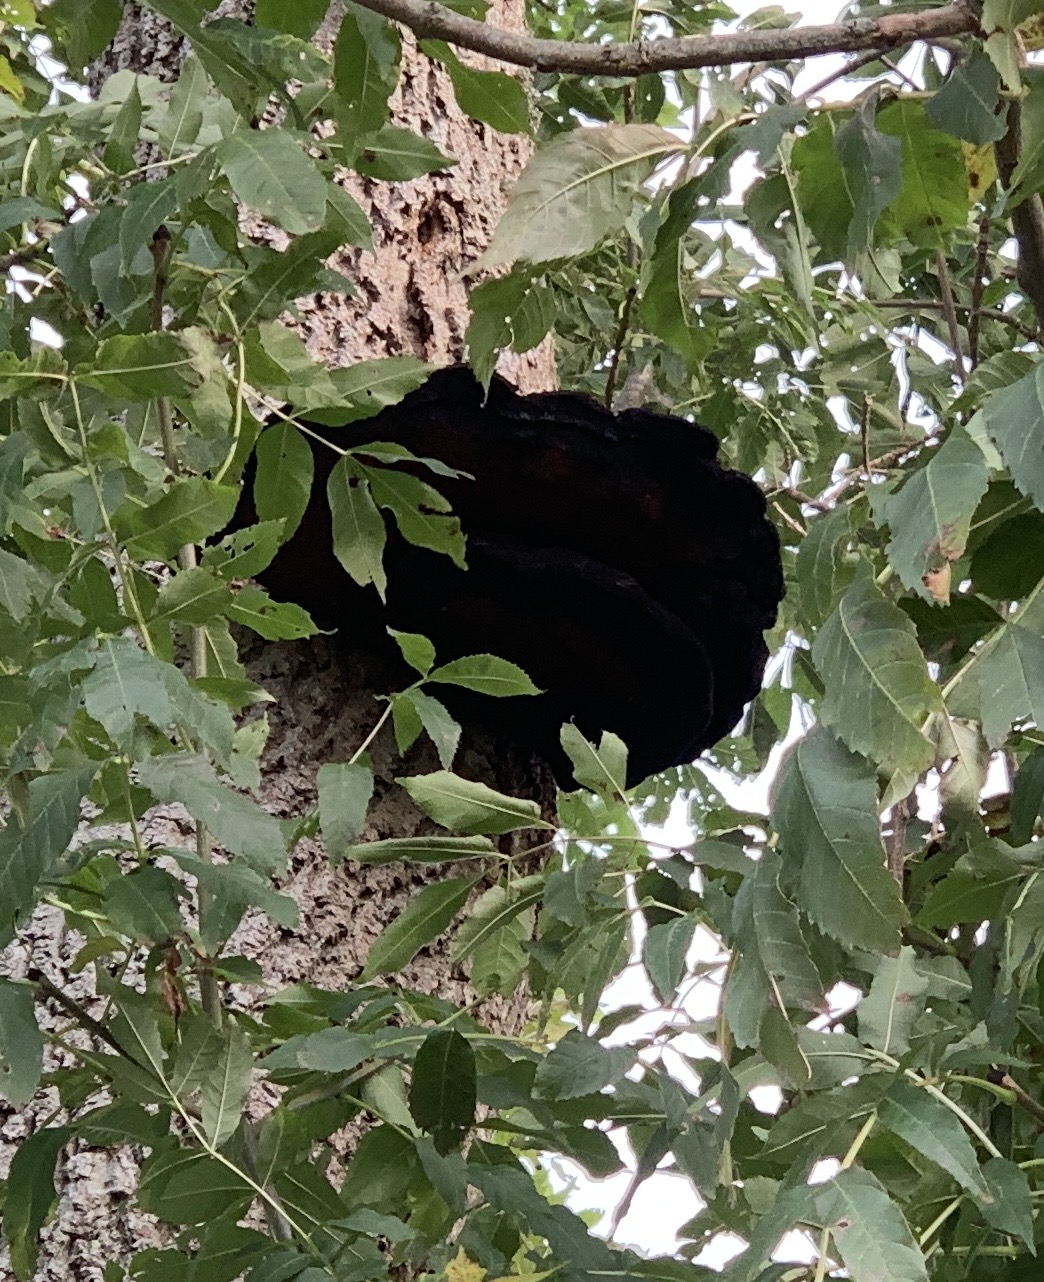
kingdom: Fungi
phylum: Basidiomycota
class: Agaricomycetes
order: Hymenochaetales
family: Hymenochaetaceae
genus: Inonotus
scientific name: Inonotus hispidus
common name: børstehåret spejlporesvamp
